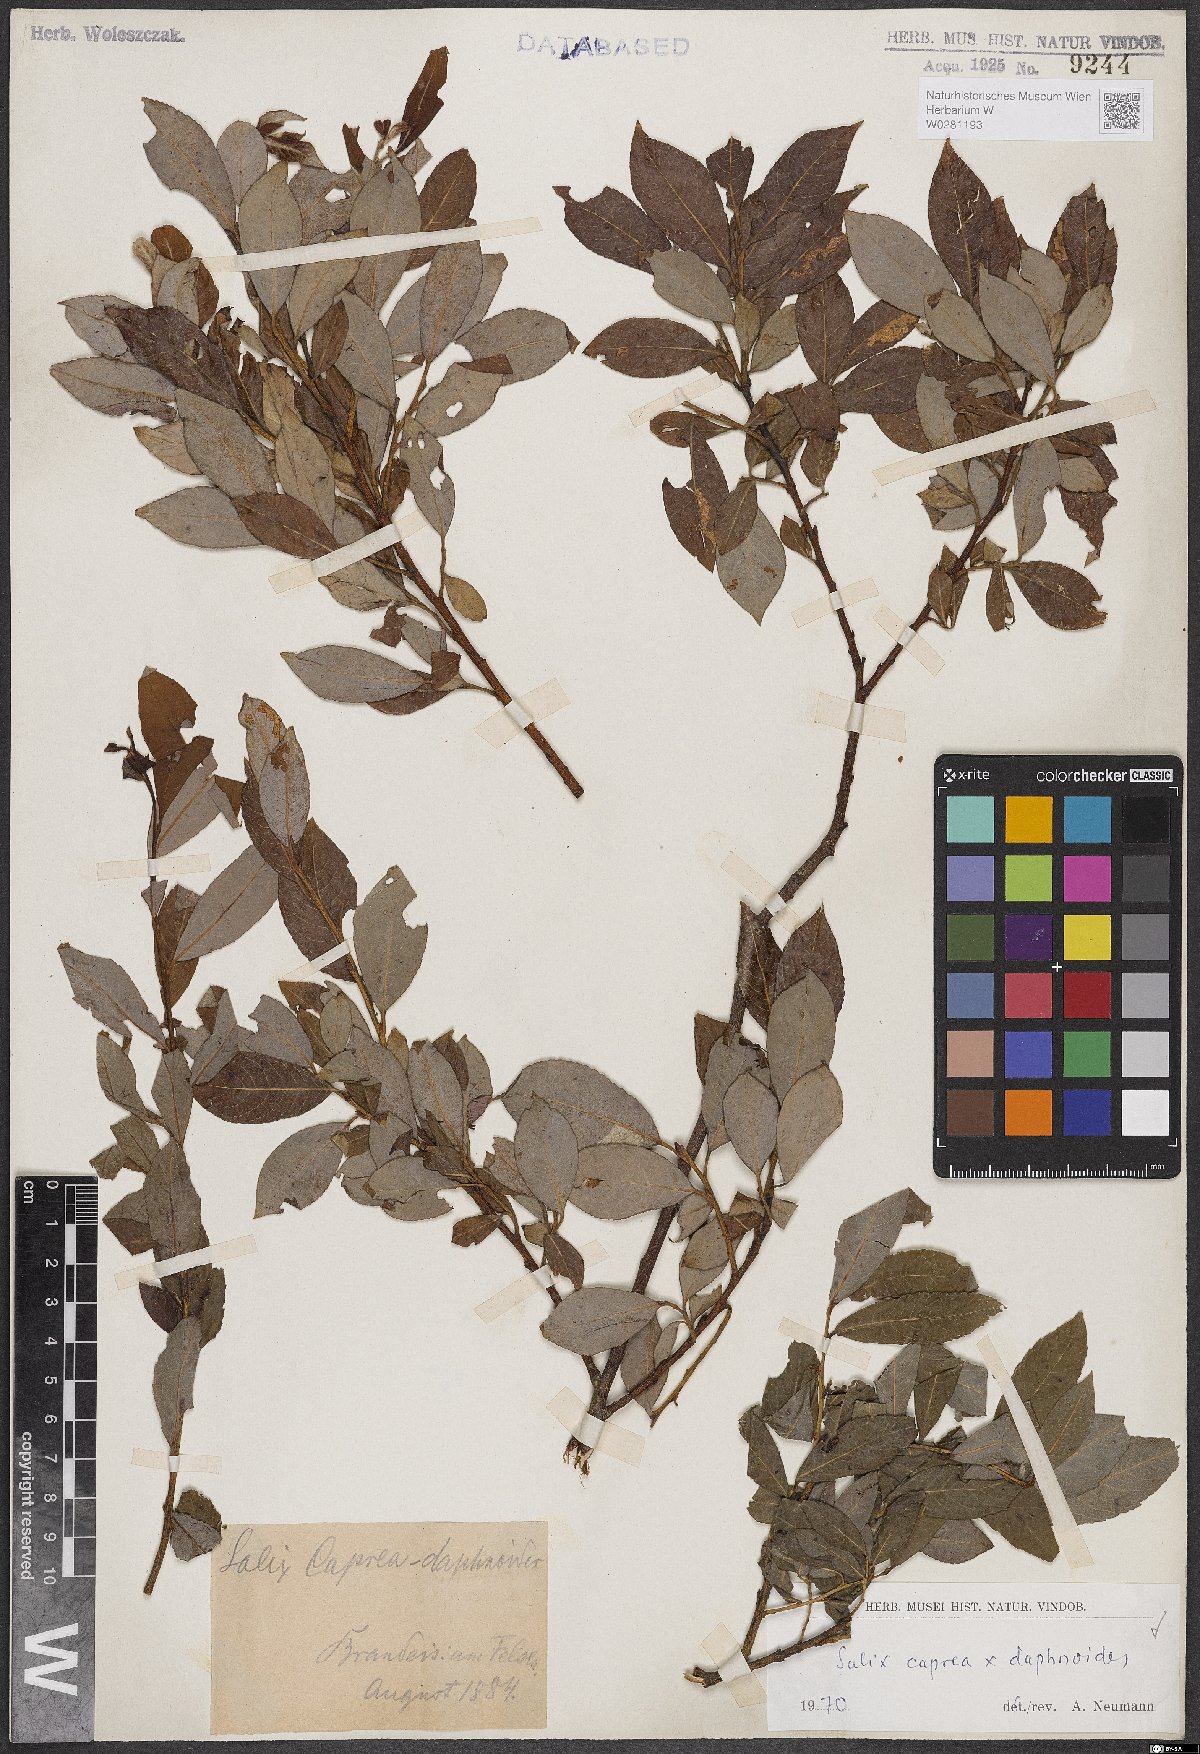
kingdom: Plantae
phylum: Tracheophyta
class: Magnoliopsida
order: Malpighiales
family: Salicaceae
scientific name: Salicaceae
